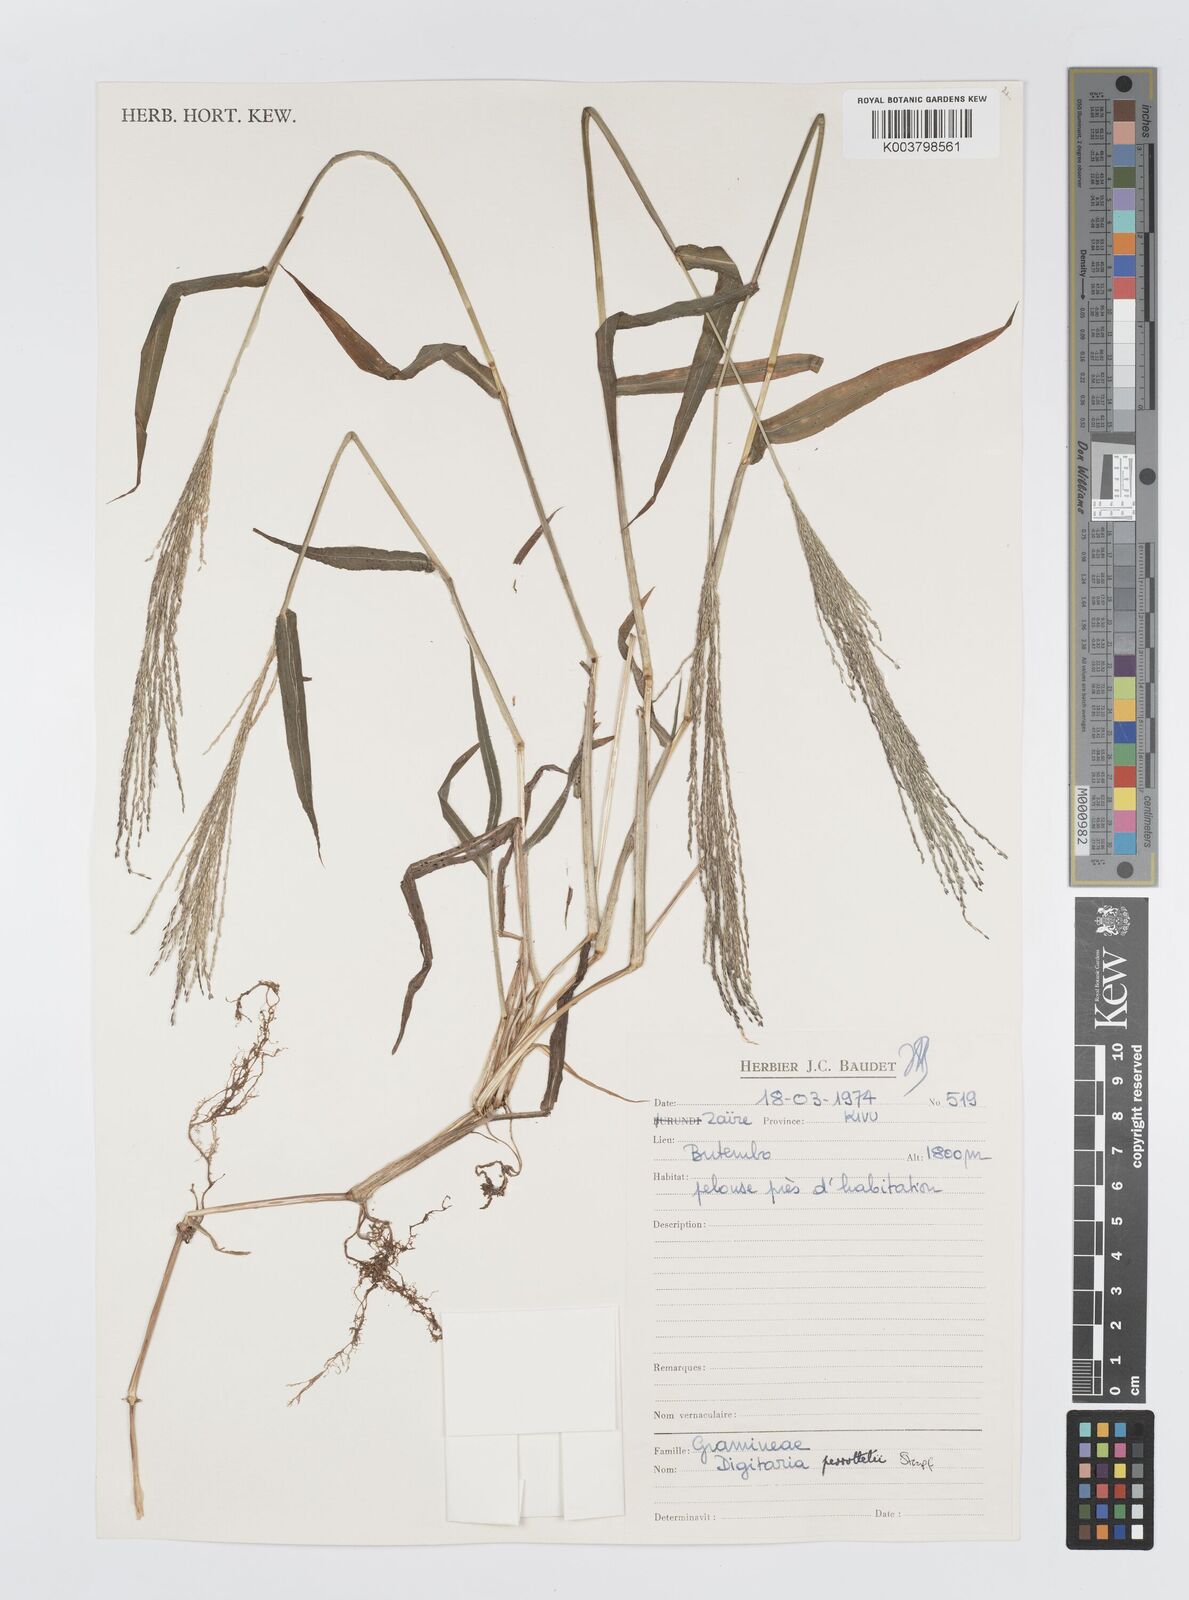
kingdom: Plantae
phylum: Tracheophyta
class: Liliopsida
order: Poales
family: Poaceae
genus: Digitaria
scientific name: Digitaria perrottetii
